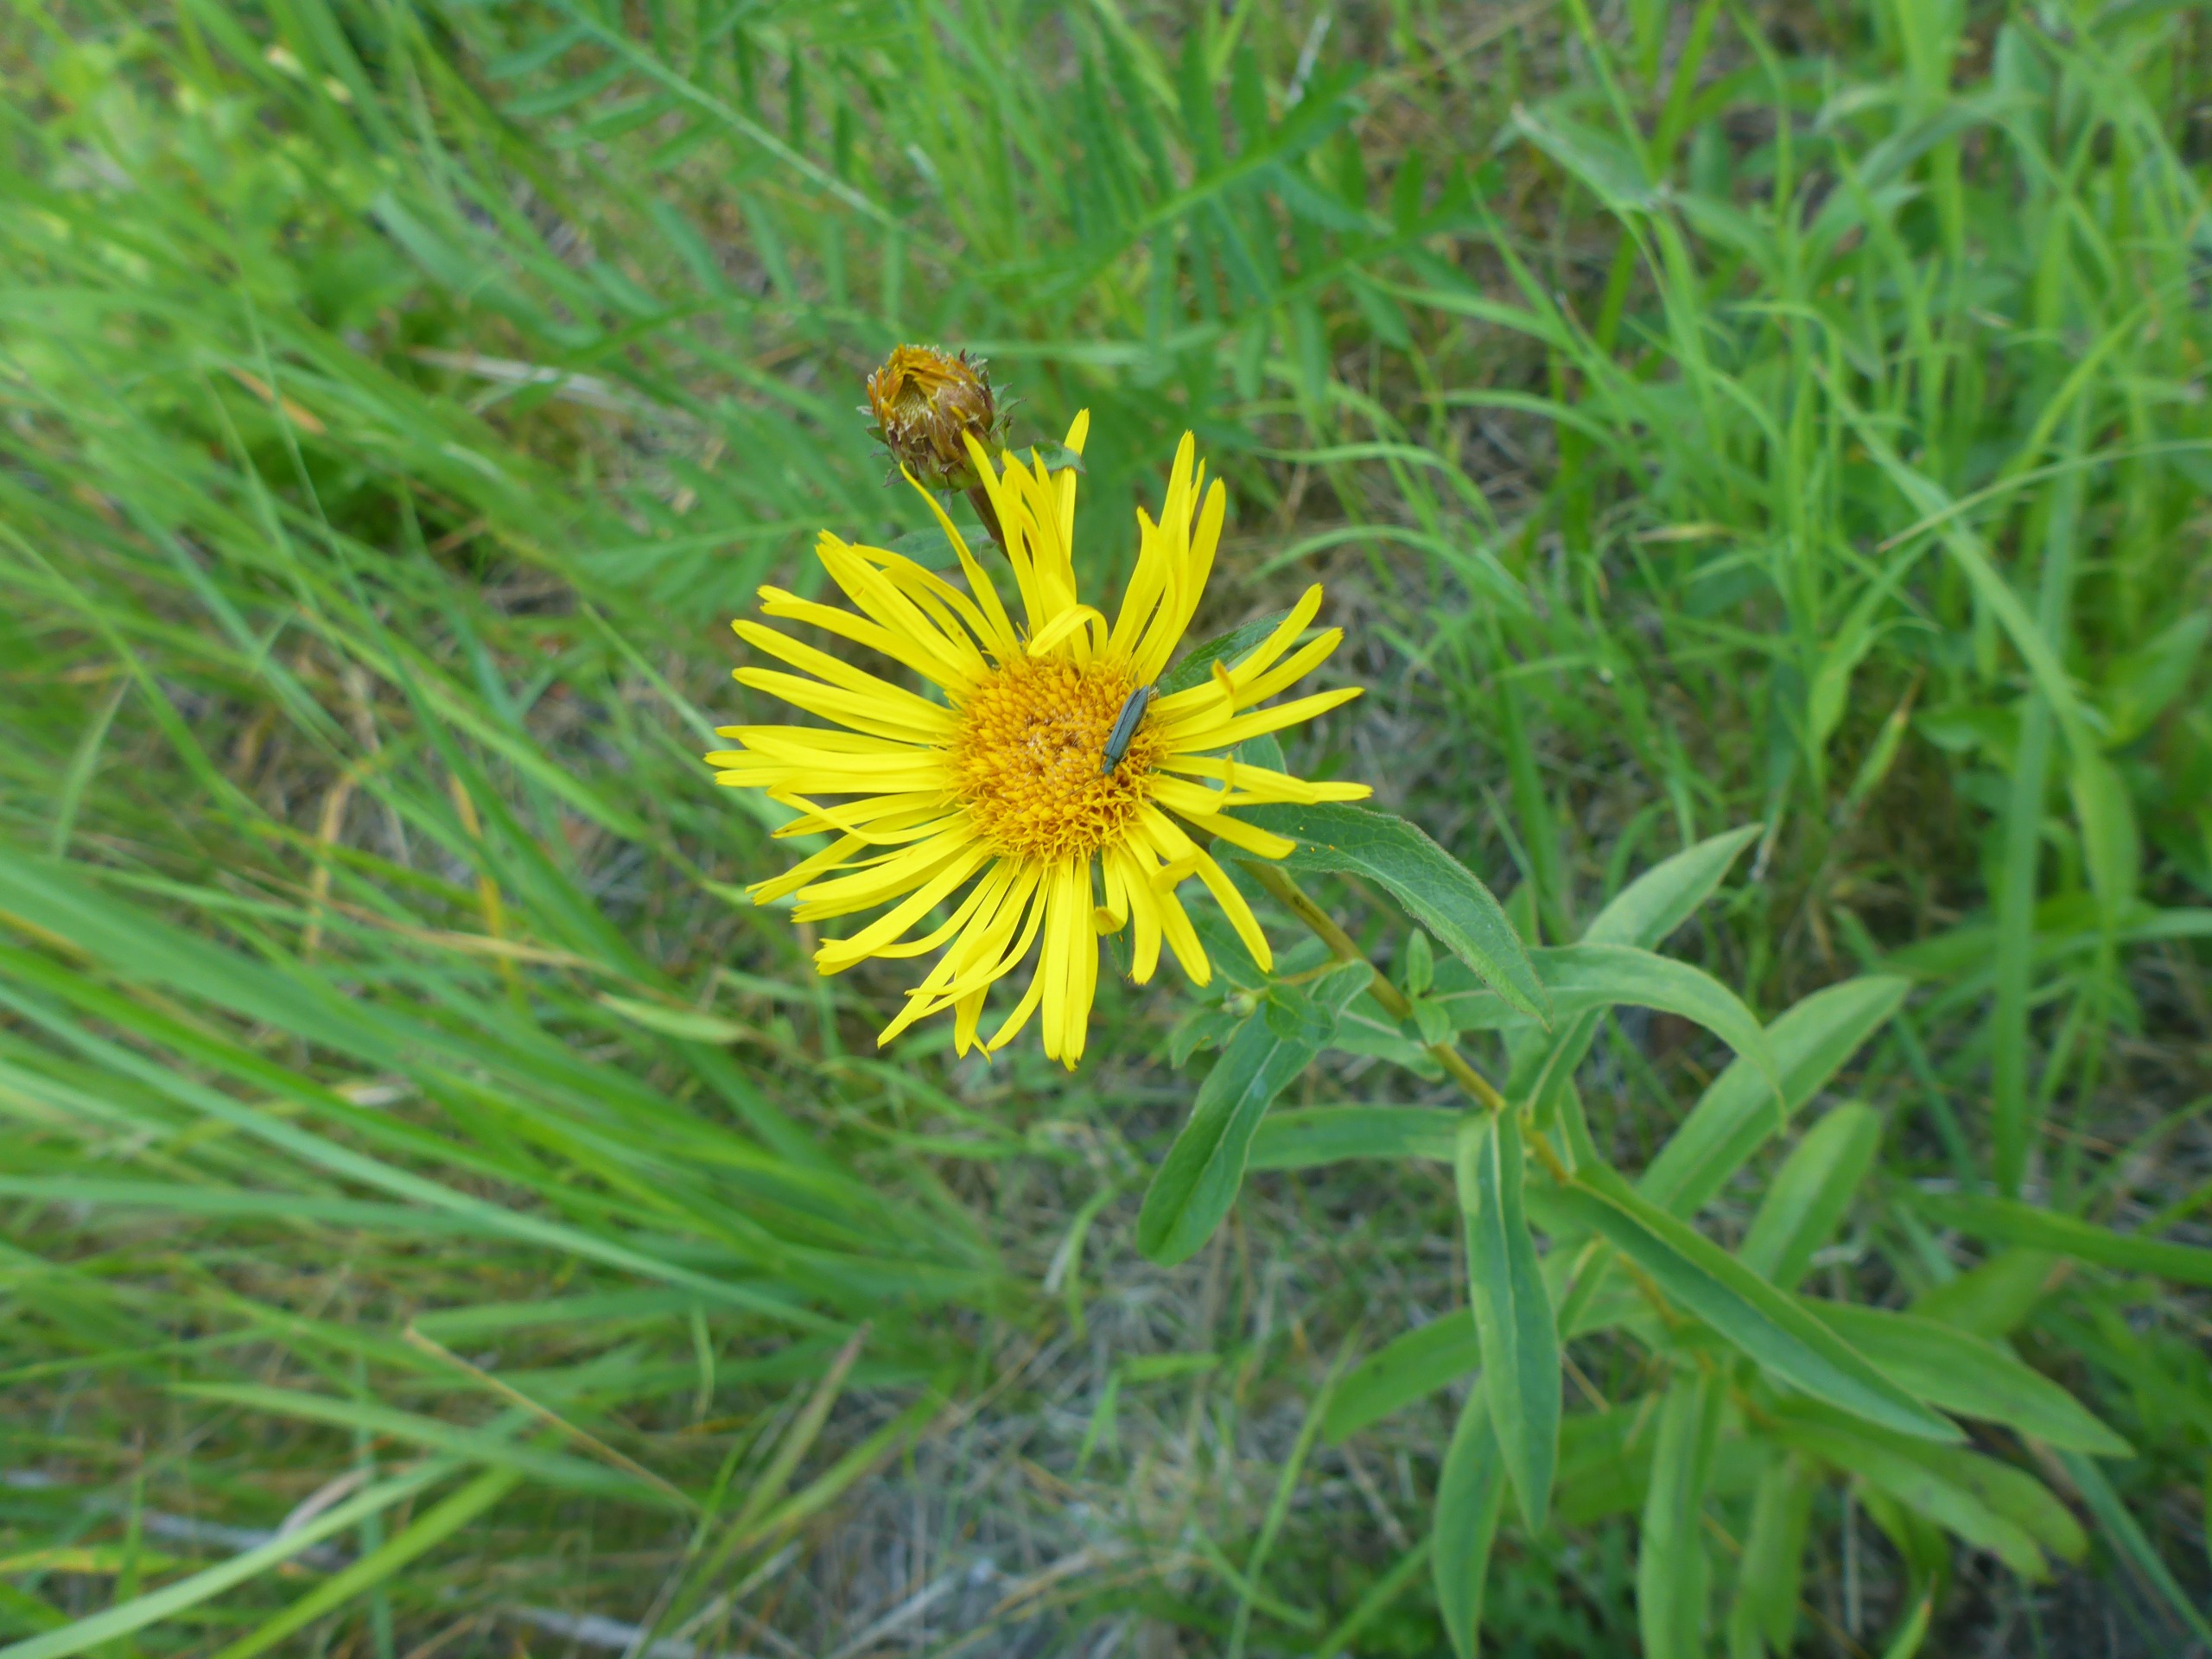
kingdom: Plantae
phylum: Tracheophyta
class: Magnoliopsida
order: Asterales
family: Asteraceae
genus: Pentanema
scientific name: Pentanema salicinum
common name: Pile-alant
